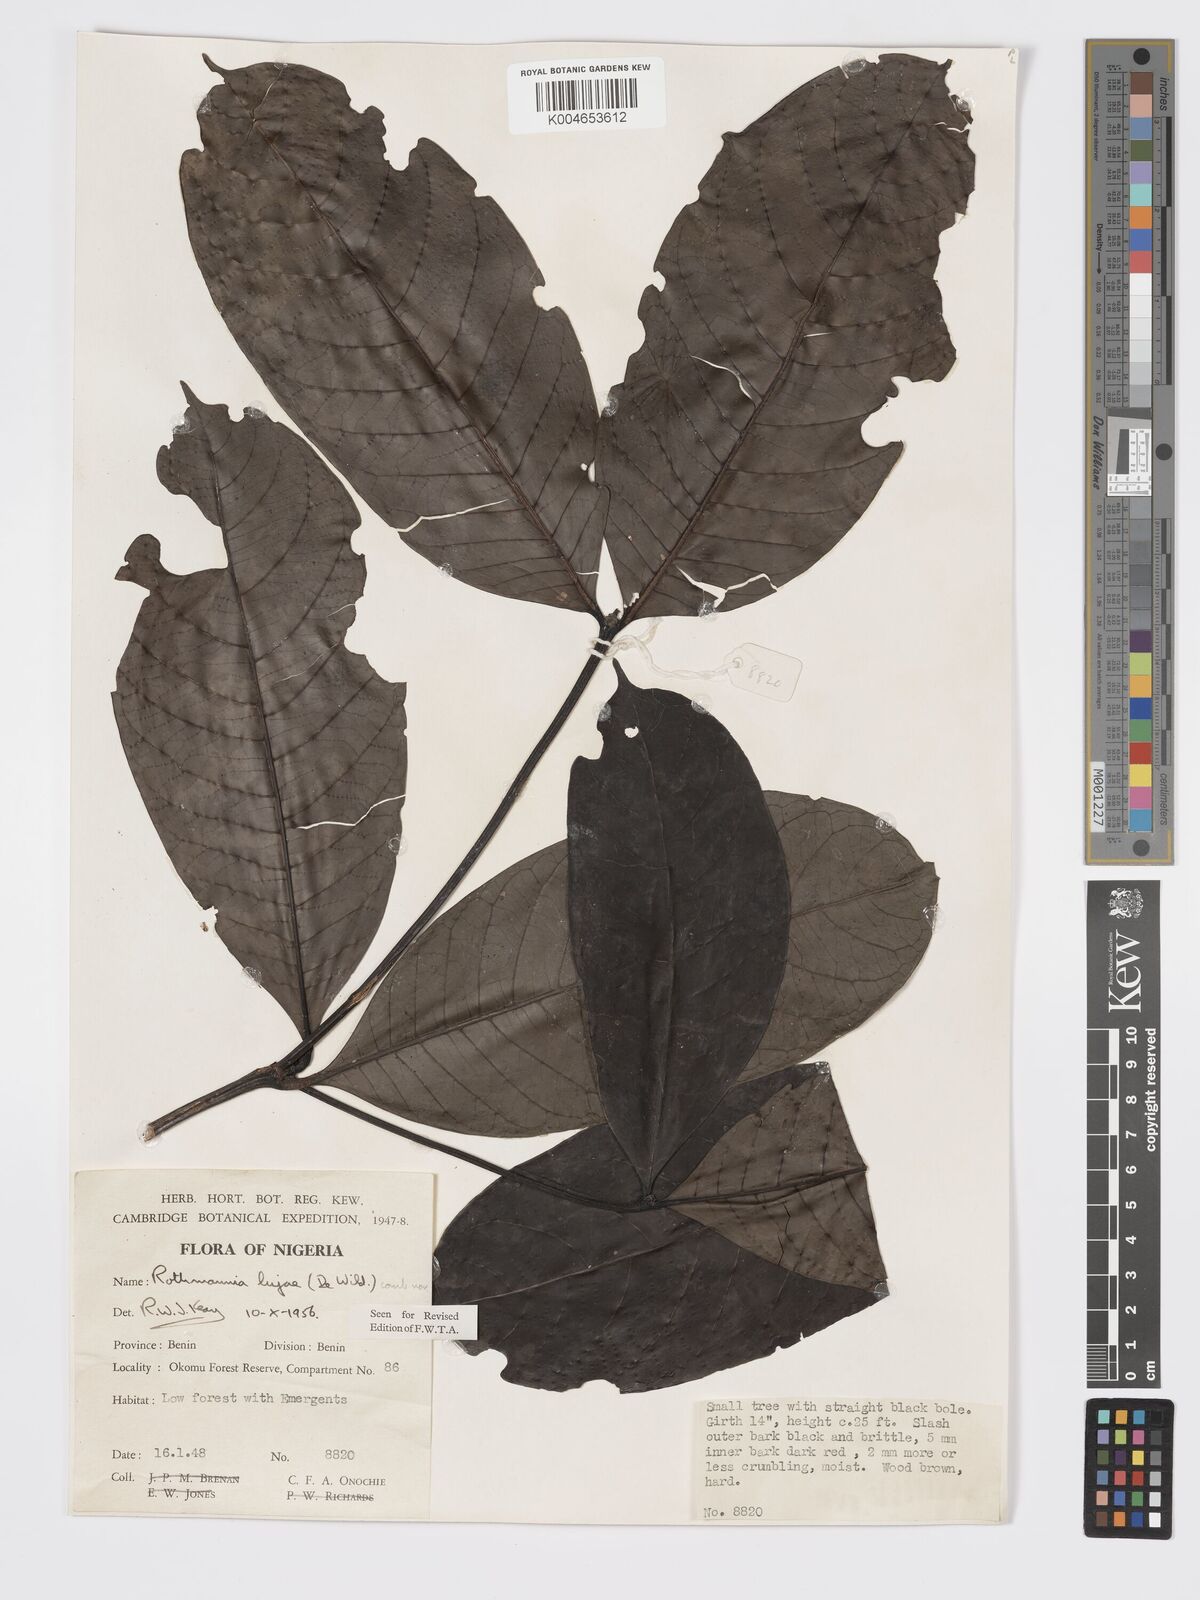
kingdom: Plantae
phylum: Tracheophyta
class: Magnoliopsida
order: Gentianales
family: Rubiaceae
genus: Rothmannia
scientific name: Rothmannia lujae
